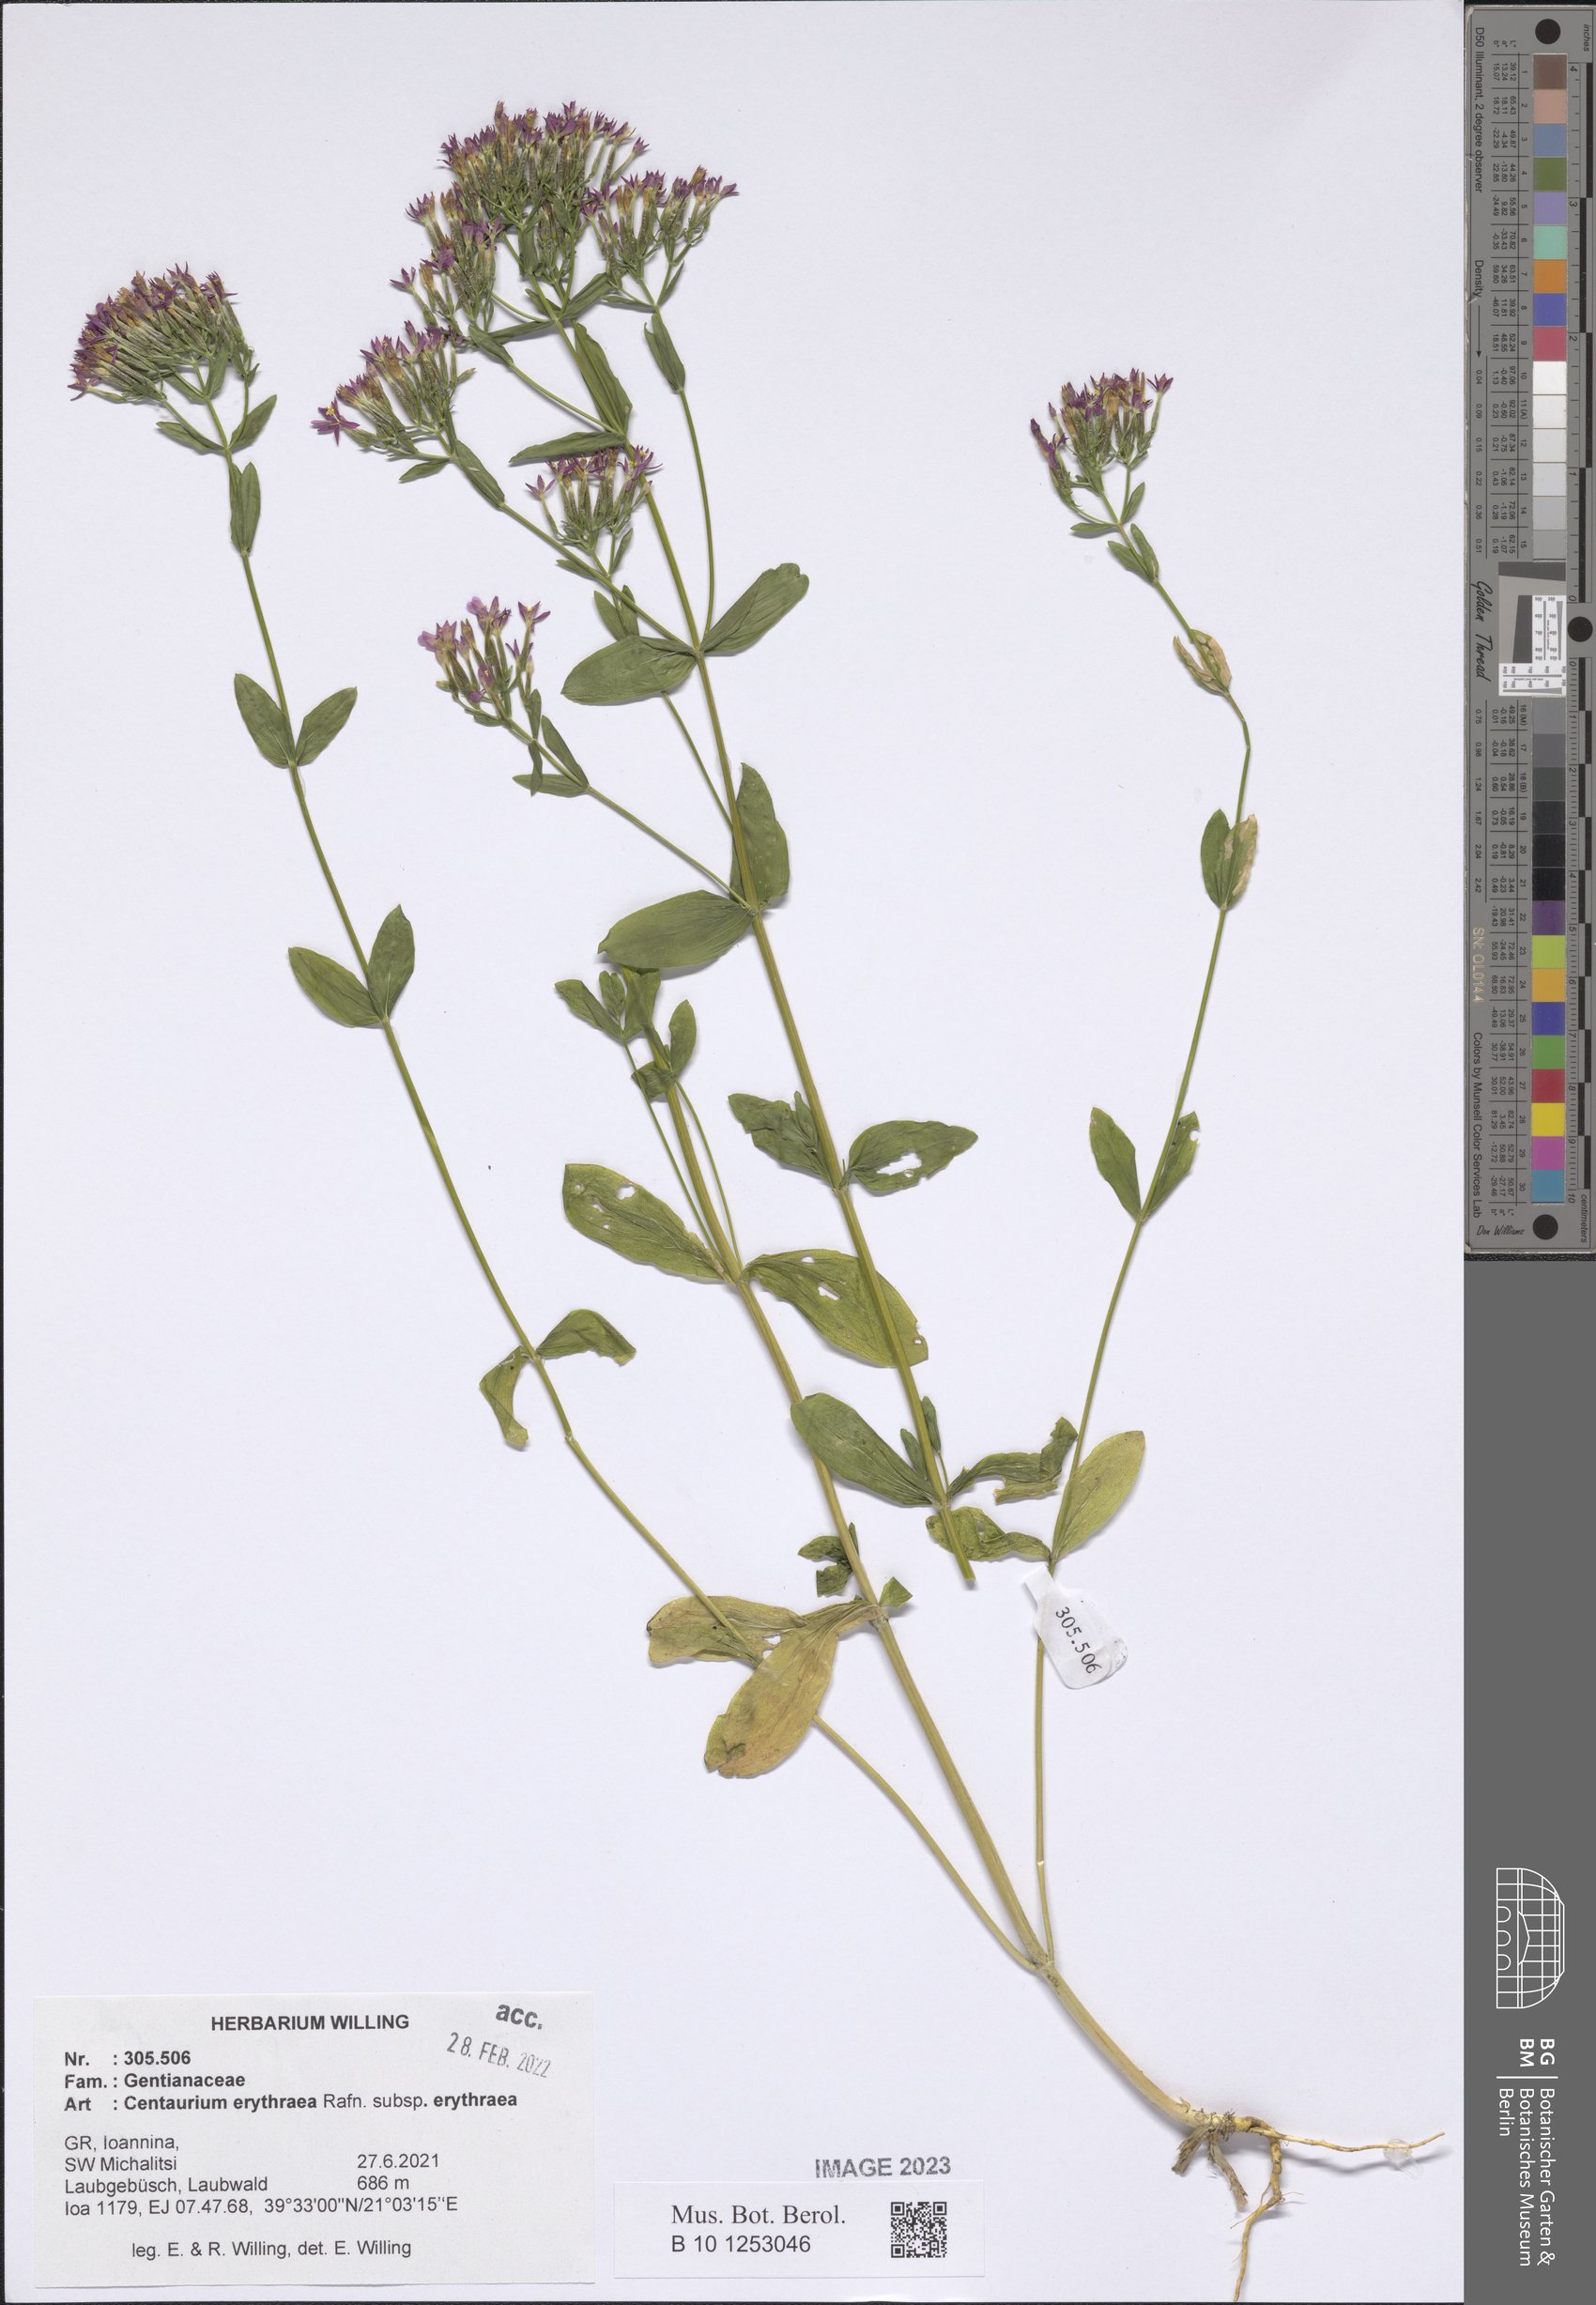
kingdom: Plantae
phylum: Tracheophyta
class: Magnoliopsida
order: Gentianales
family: Gentianaceae
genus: Centaurium
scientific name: Centaurium erythraea
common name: Common centaury
